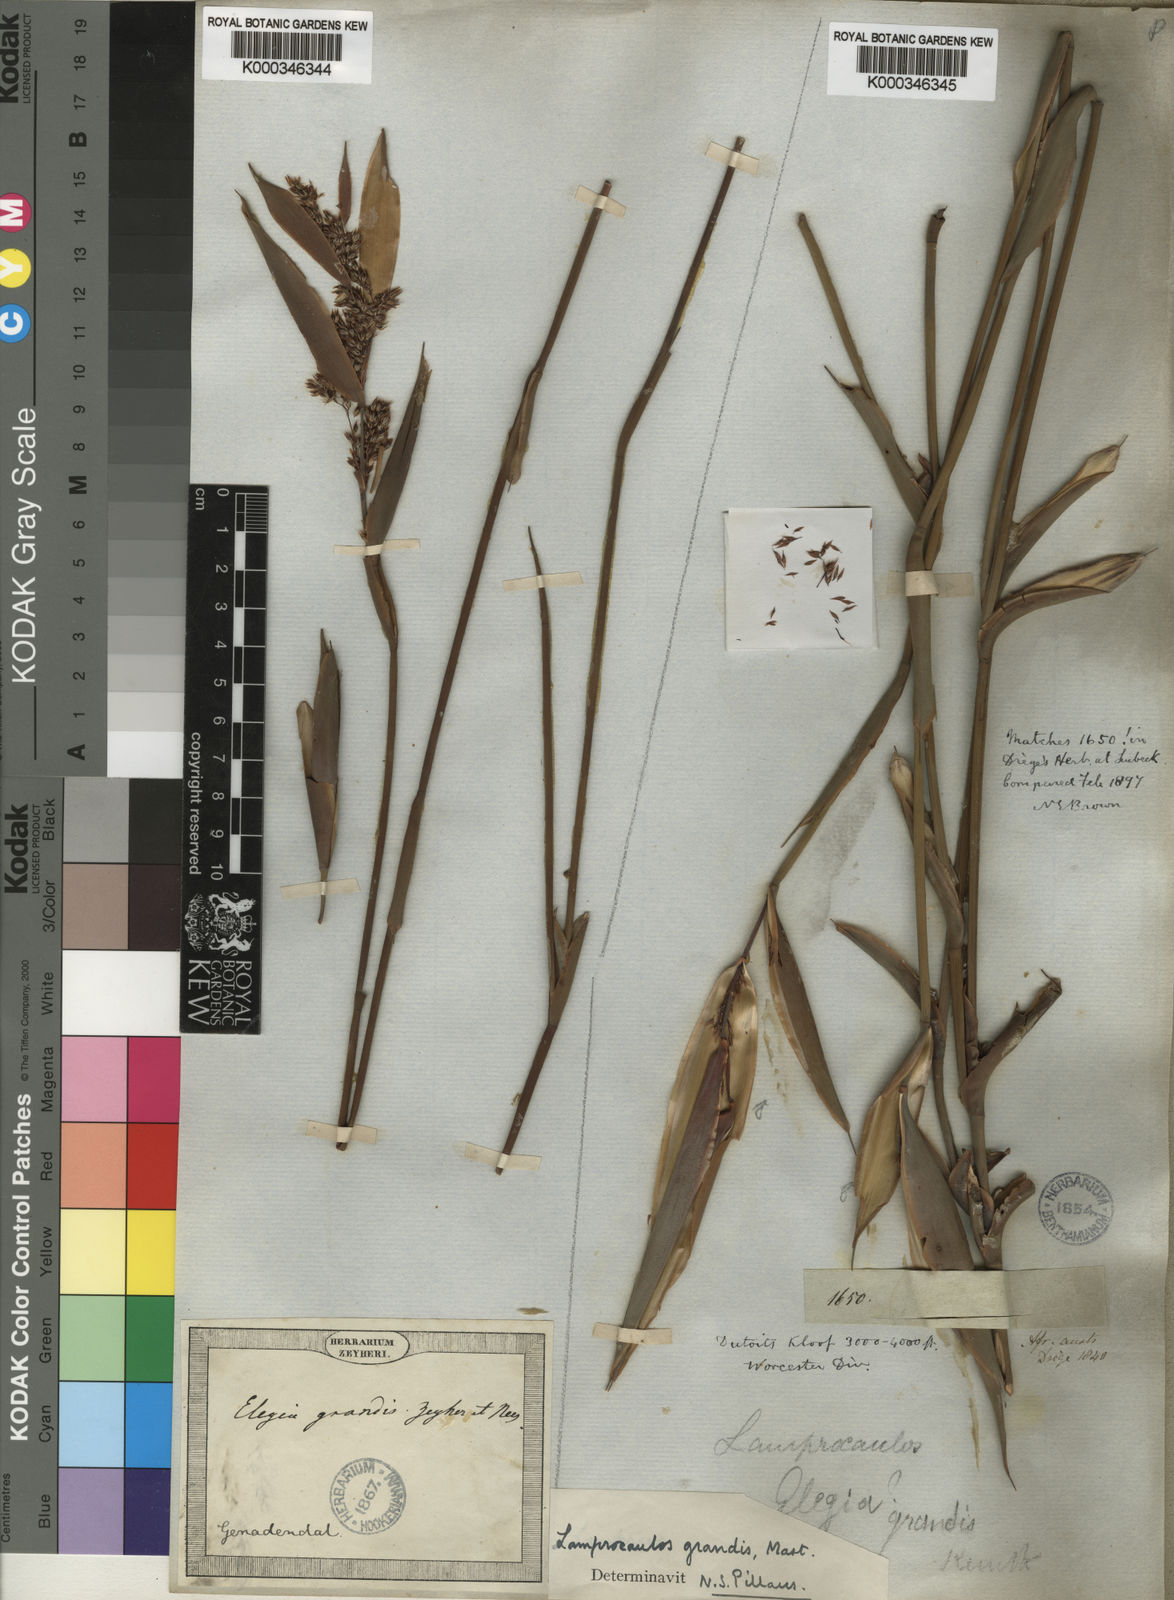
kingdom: Plantae
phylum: Tracheophyta
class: Liliopsida
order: Poales
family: Restionaceae
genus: Elegia
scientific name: Elegia grandis
